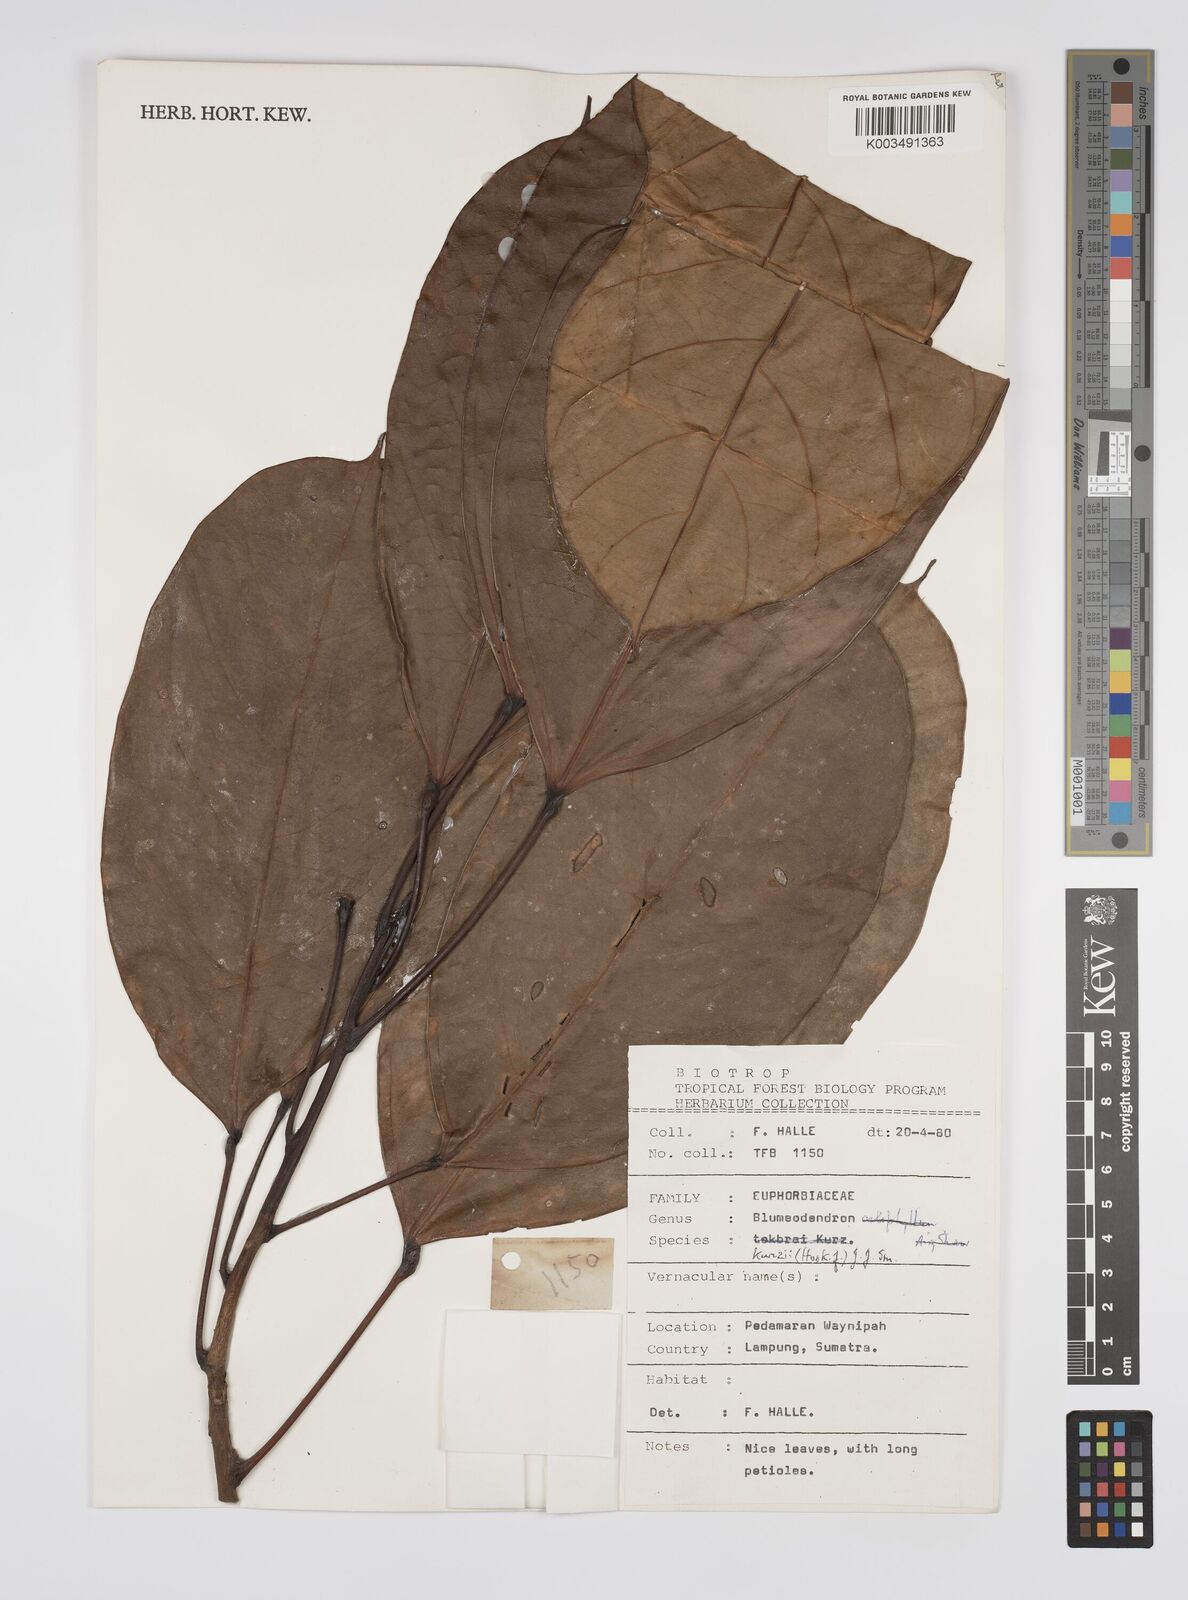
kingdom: Plantae
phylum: Tracheophyta
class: Magnoliopsida
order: Malpighiales
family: Euphorbiaceae
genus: Blumeodendron
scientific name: Blumeodendron kurzii
